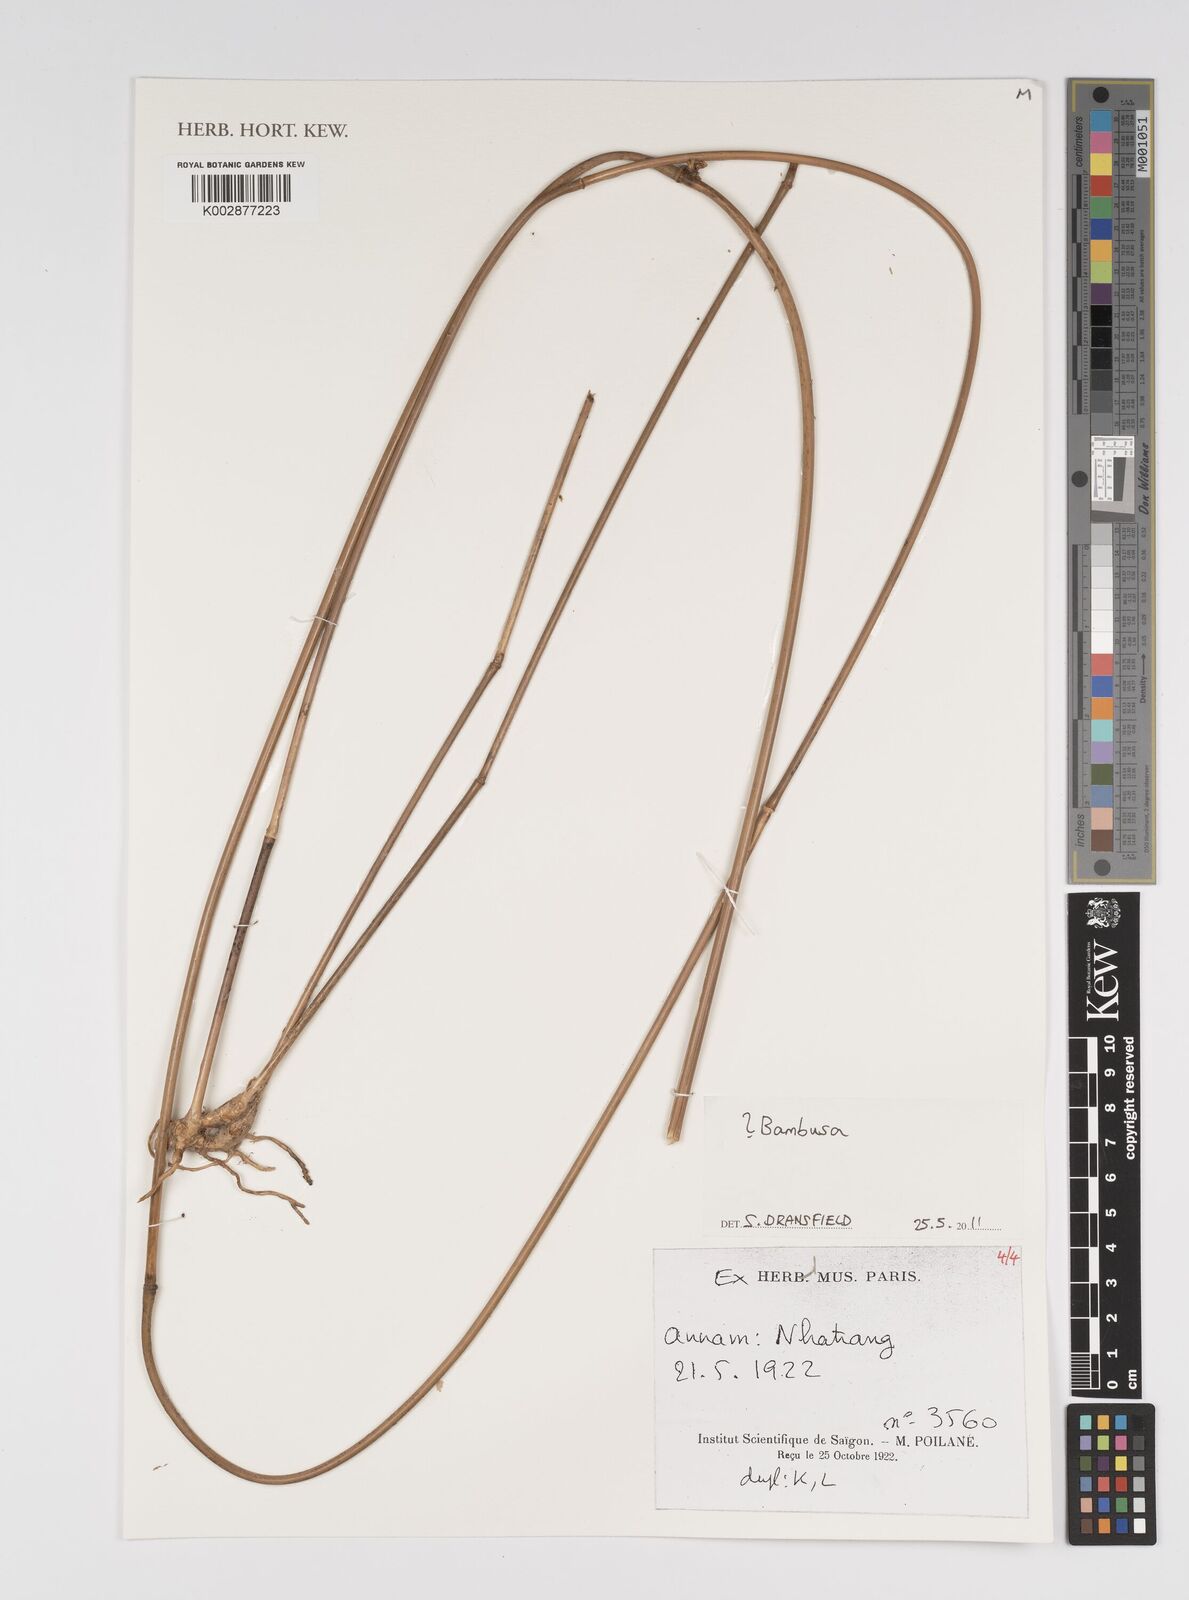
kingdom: Plantae
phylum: Tracheophyta
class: Liliopsida
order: Poales
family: Poaceae
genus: Bambusa
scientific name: Bambusa
